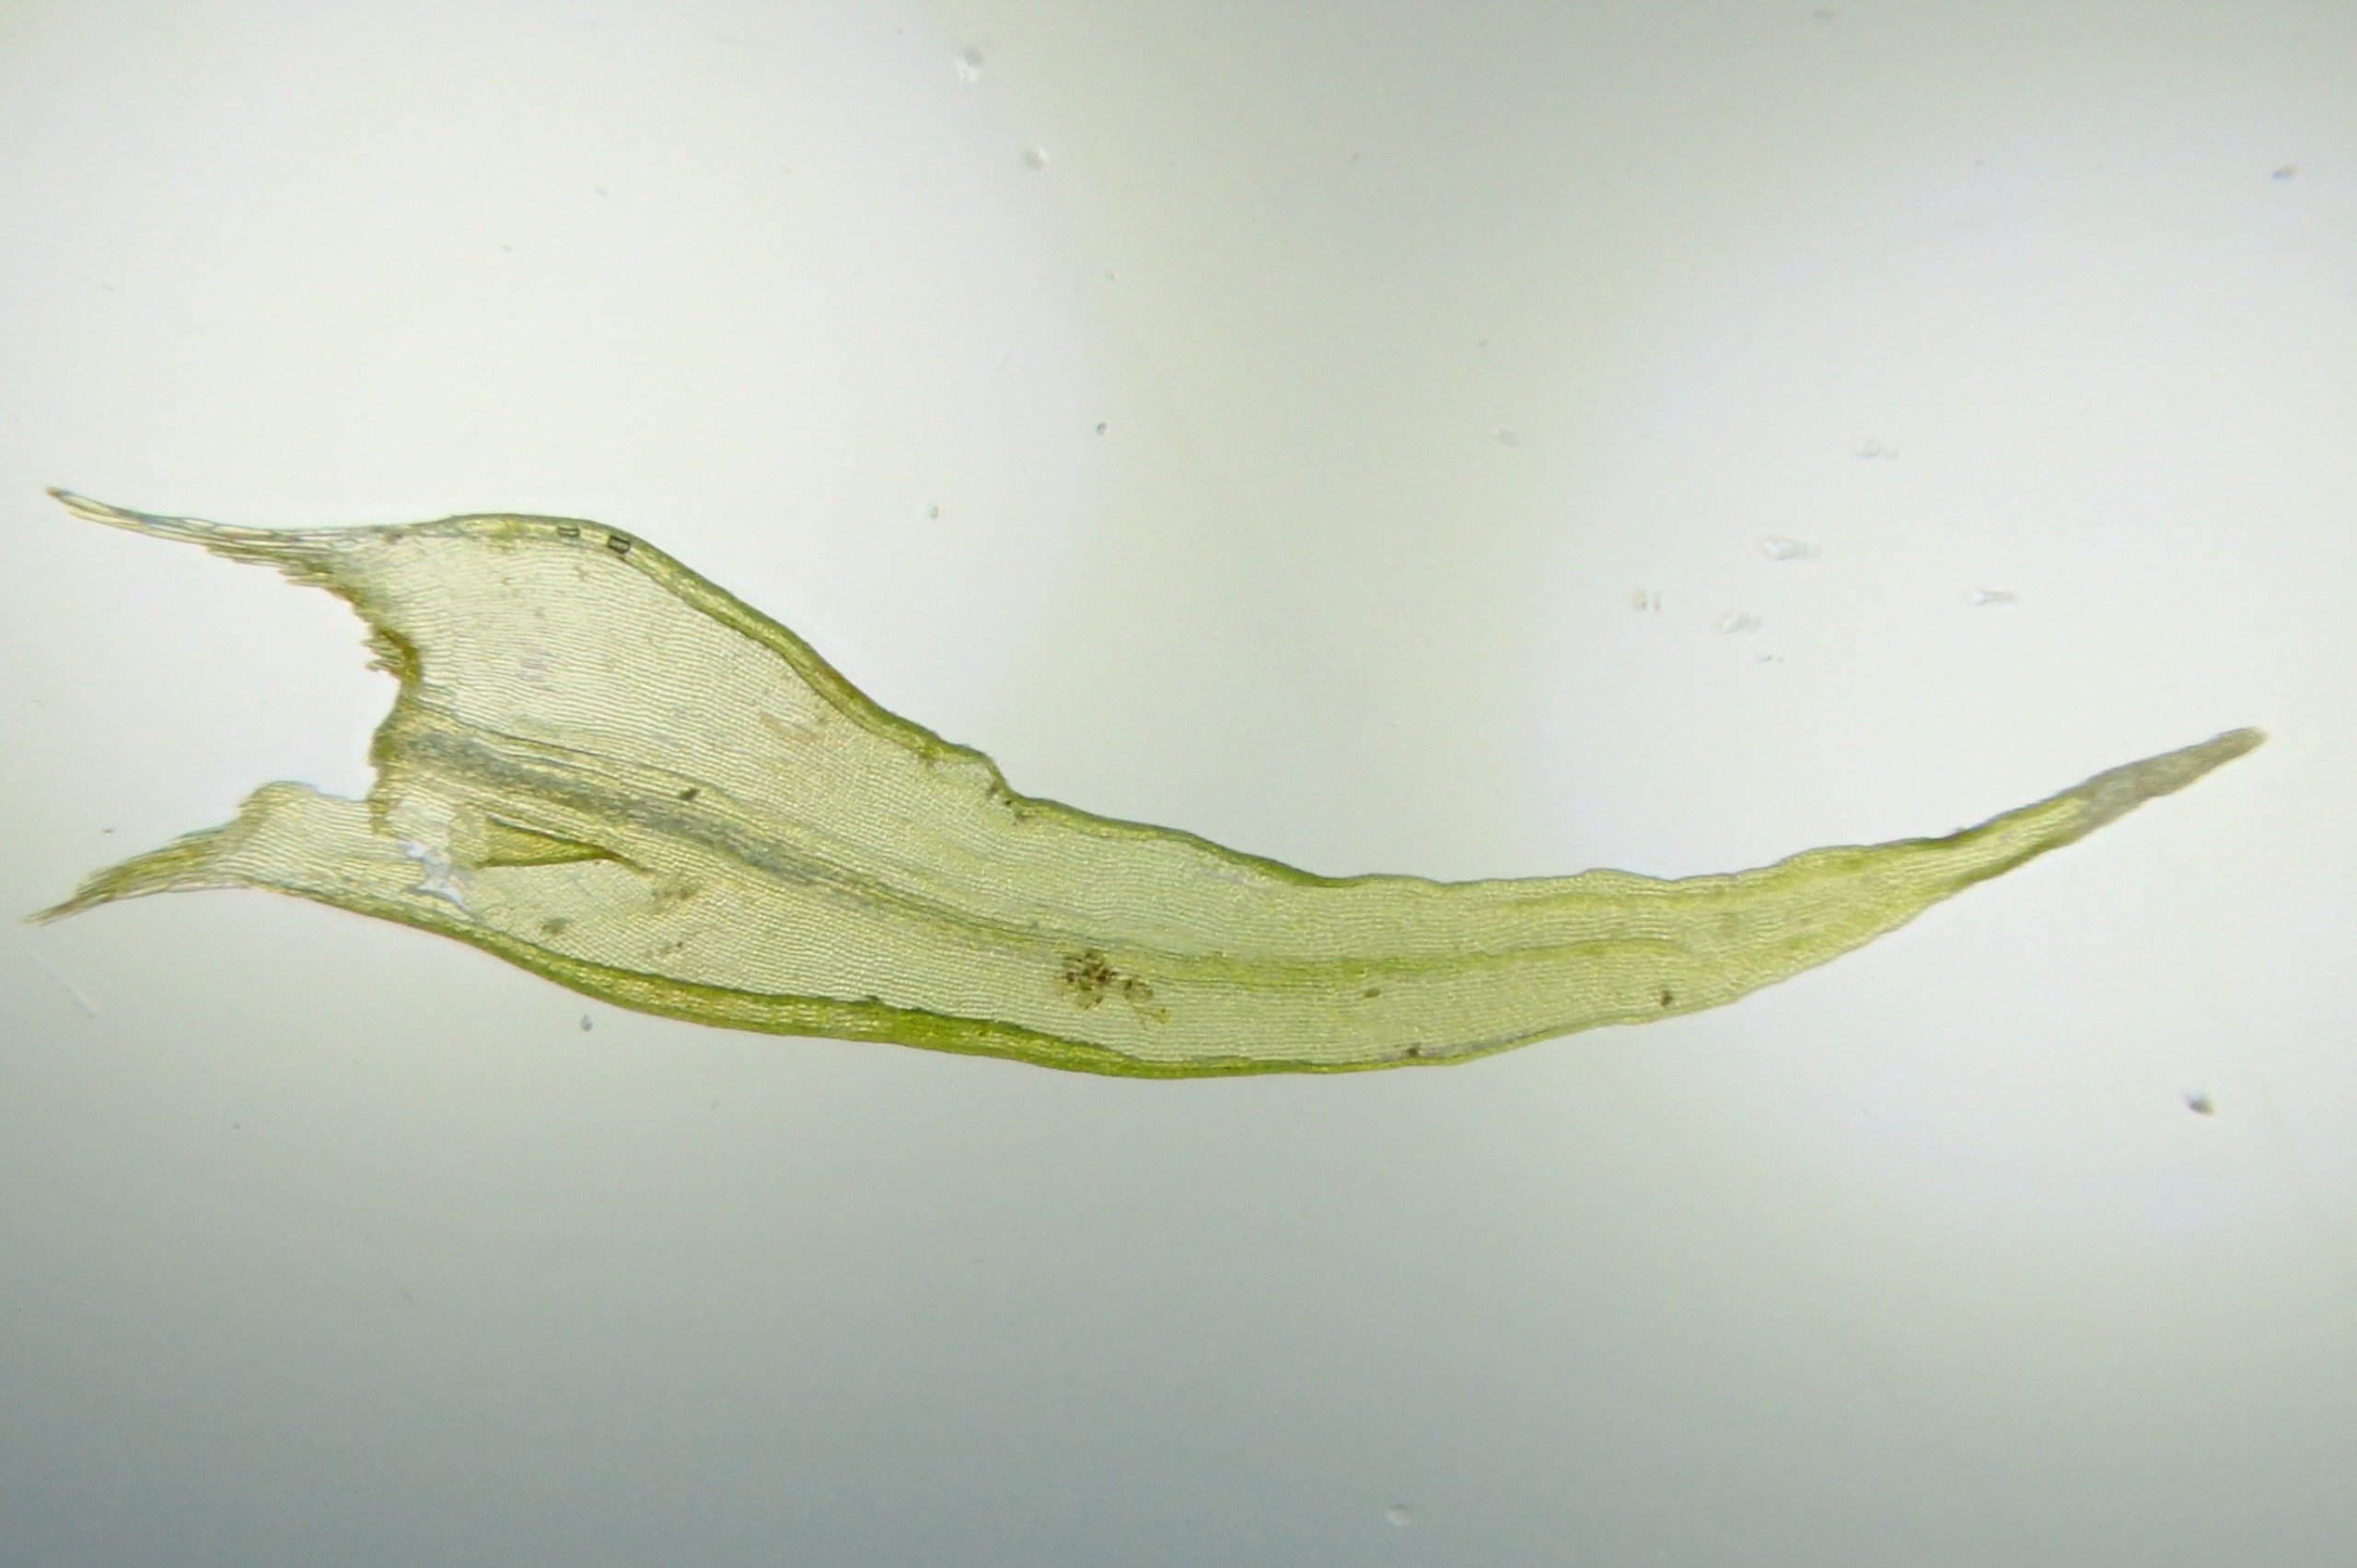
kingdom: Plantae
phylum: Bryophyta
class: Bryopsida
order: Grimmiales
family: Grimmiaceae
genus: Dilutineuron
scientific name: Dilutineuron fasciculare
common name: Knippe-børstemos
